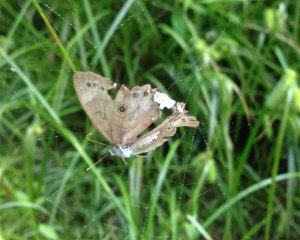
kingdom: Animalia
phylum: Arthropoda
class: Insecta
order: Lepidoptera
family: Nymphalidae
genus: Lethe
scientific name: Lethe eurydice
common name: Appalachian Eyed Brown
